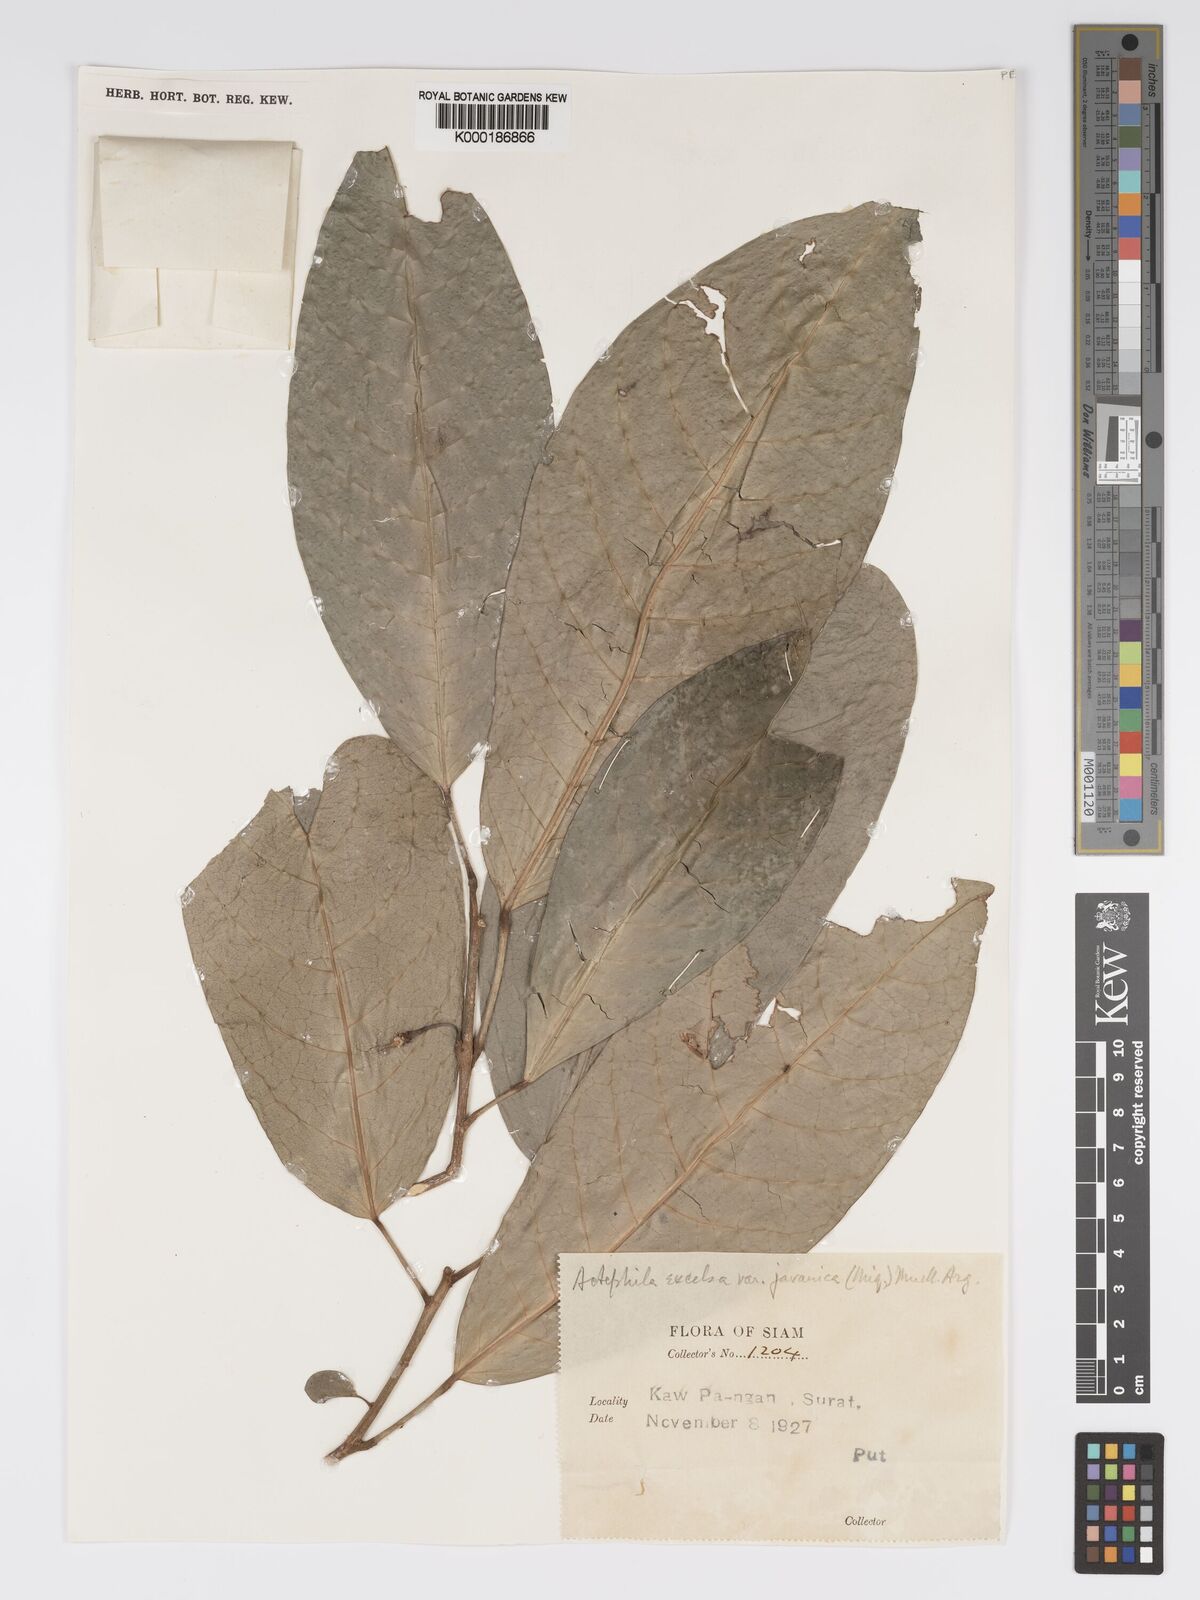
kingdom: Plantae
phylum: Tracheophyta
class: Magnoliopsida
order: Malpighiales
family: Phyllanthaceae
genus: Actephila
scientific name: Actephila
